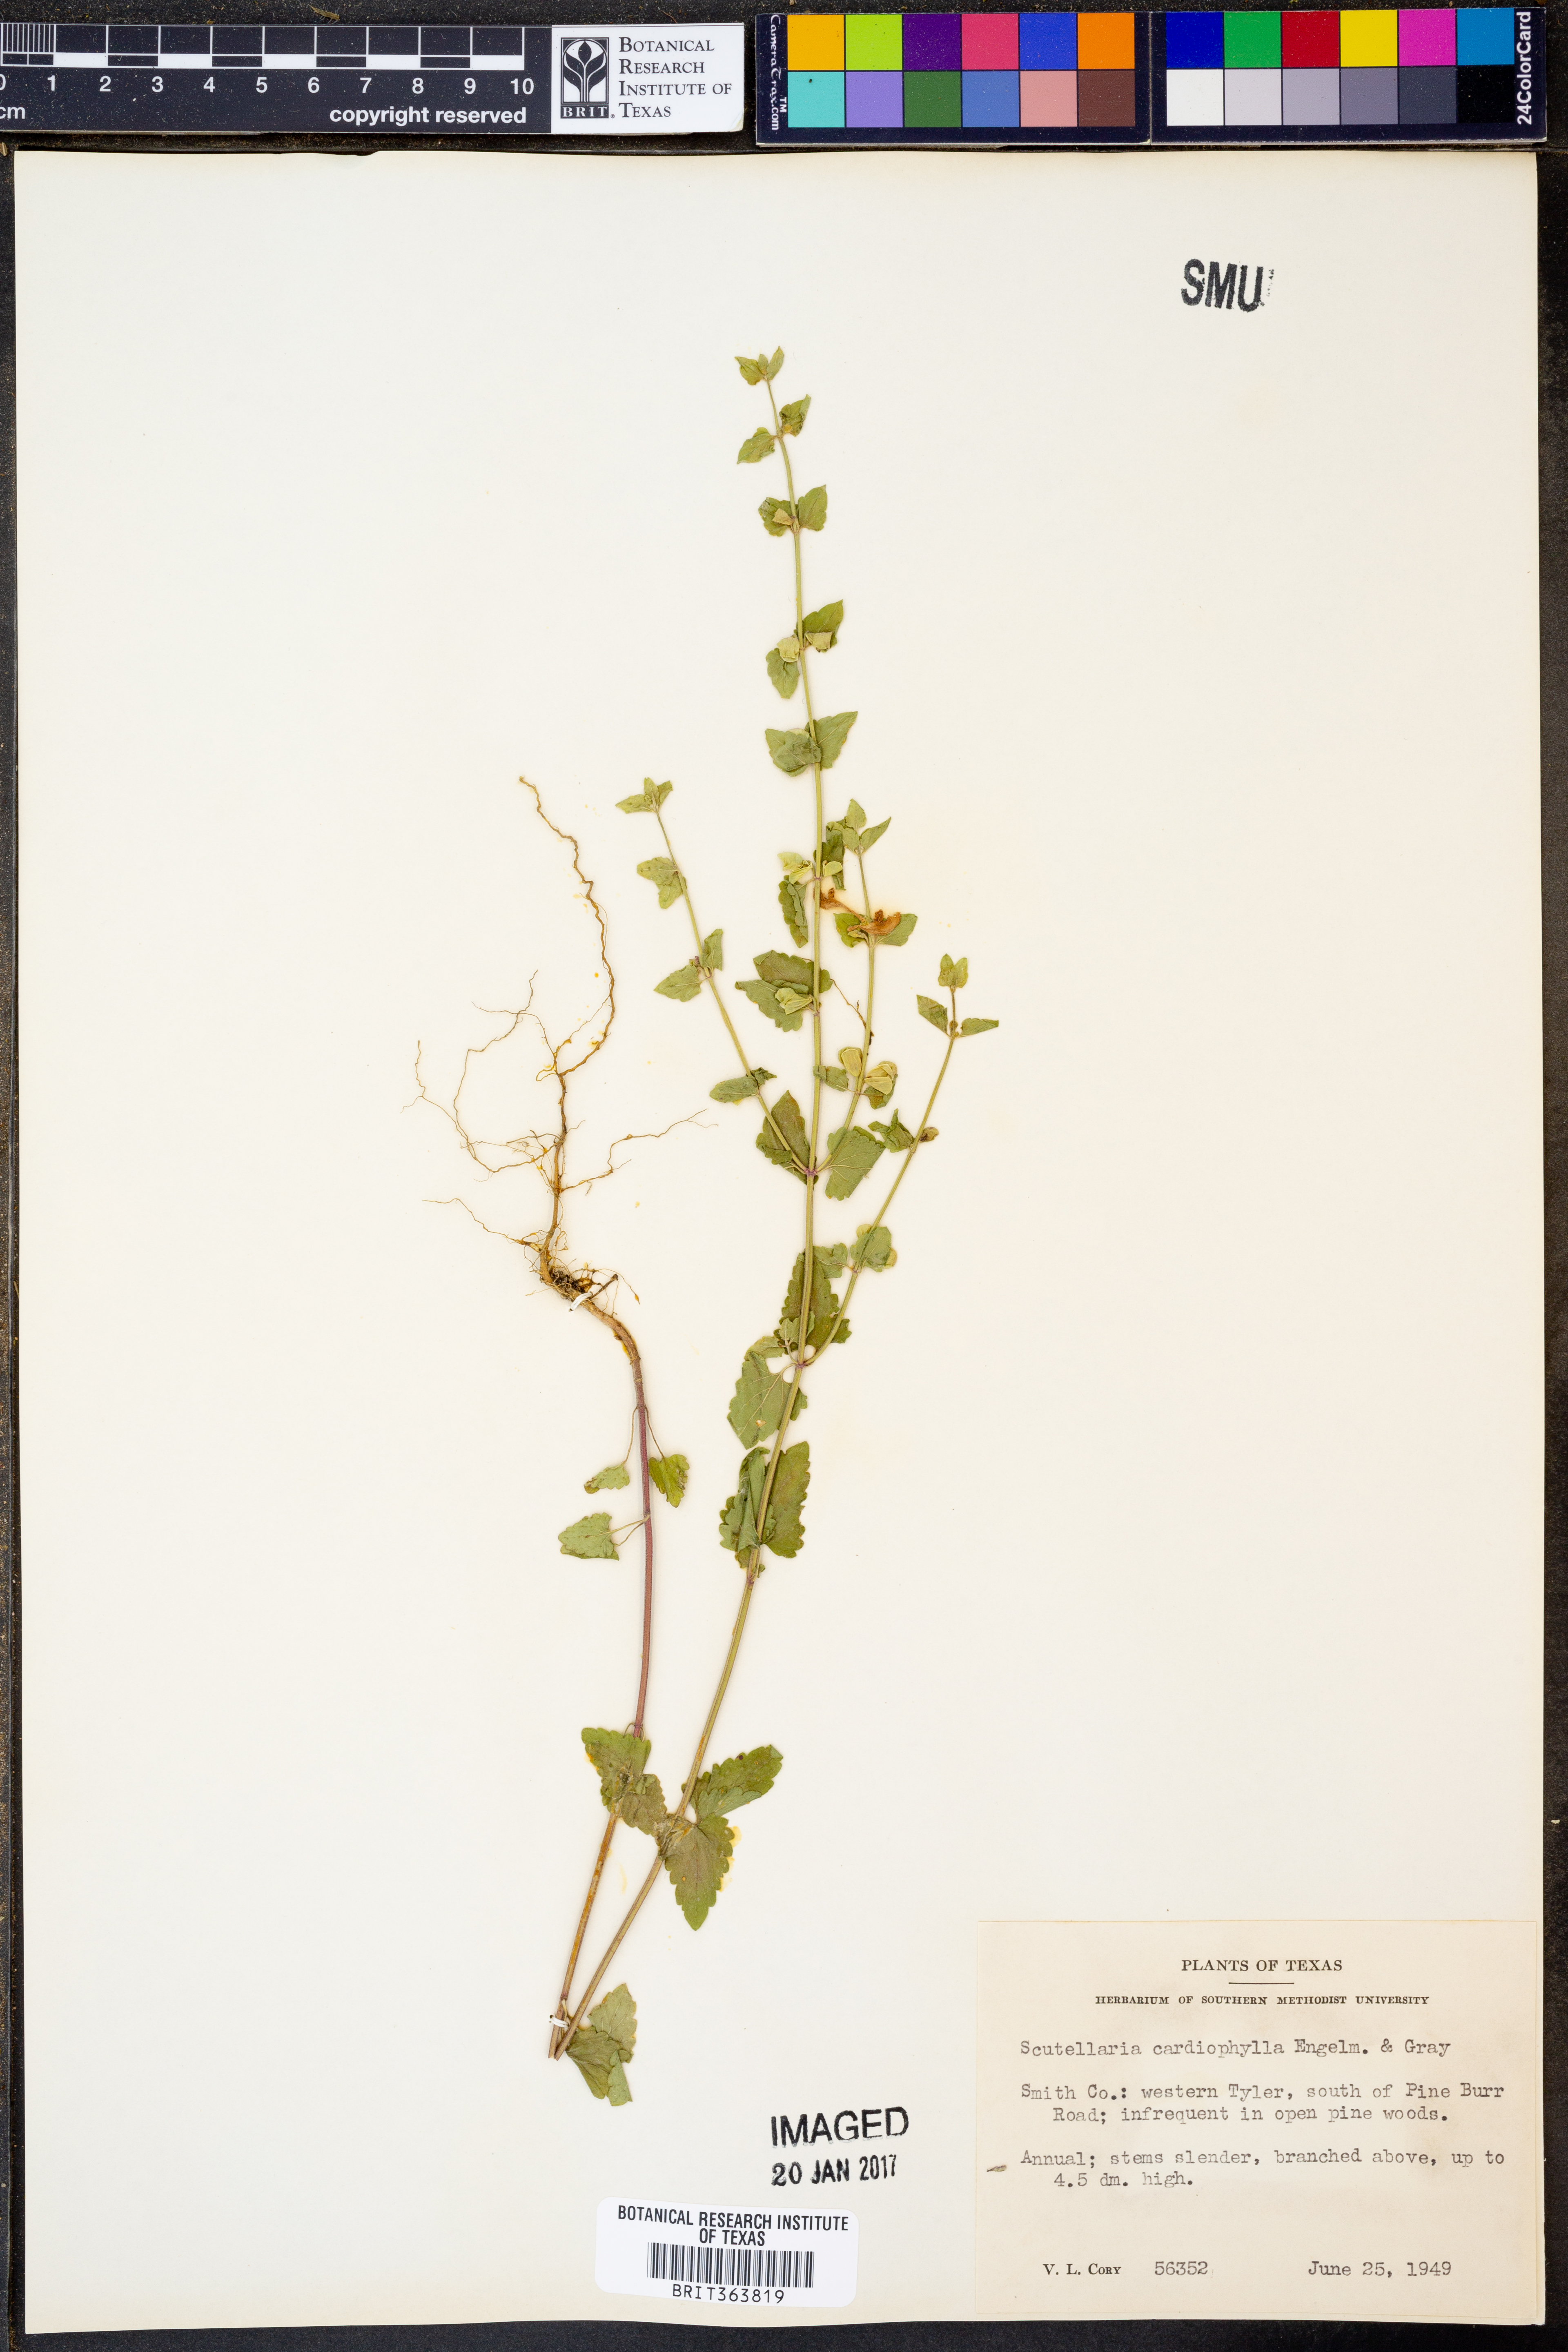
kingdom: Plantae
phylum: Tracheophyta
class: Magnoliopsida
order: Lamiales
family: Lamiaceae
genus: Scutellaria
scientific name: Scutellaria cardiophylla
